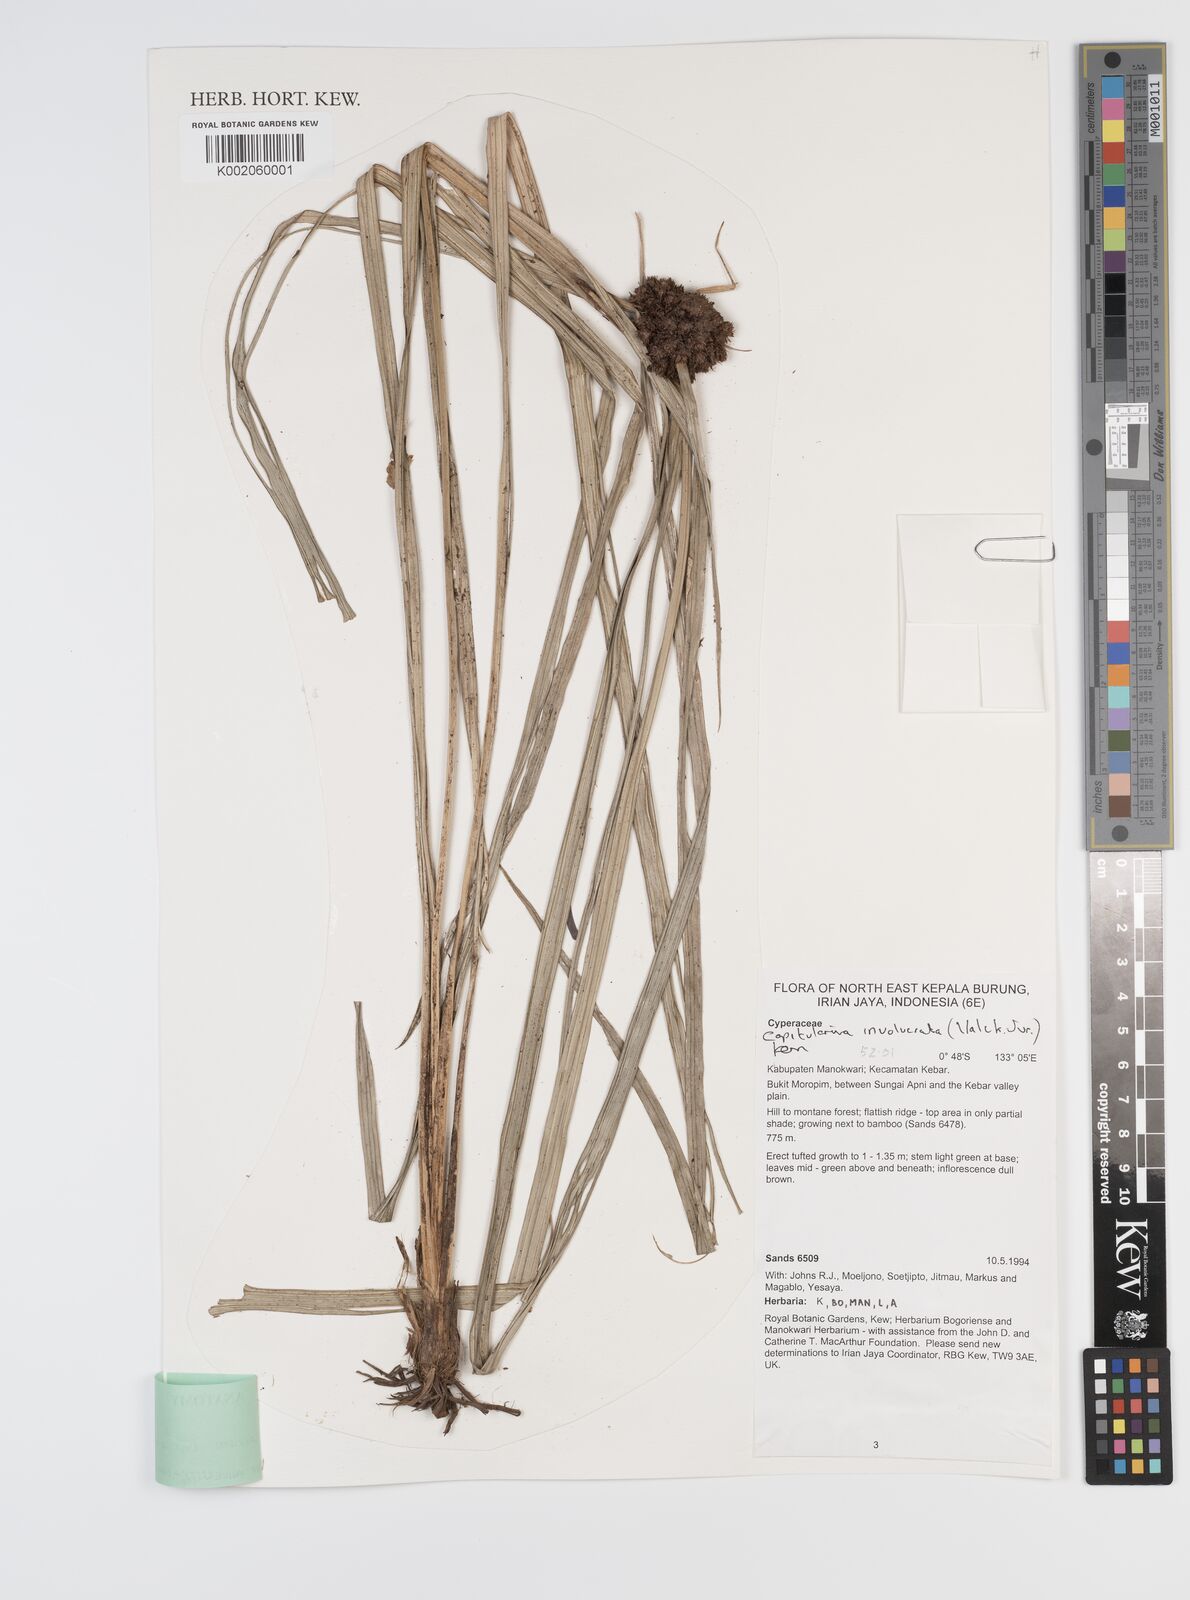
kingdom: Plantae
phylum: Tracheophyta
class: Liliopsida
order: Poales
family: Cyperaceae
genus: Capitularina
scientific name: Capitularina involucrata
